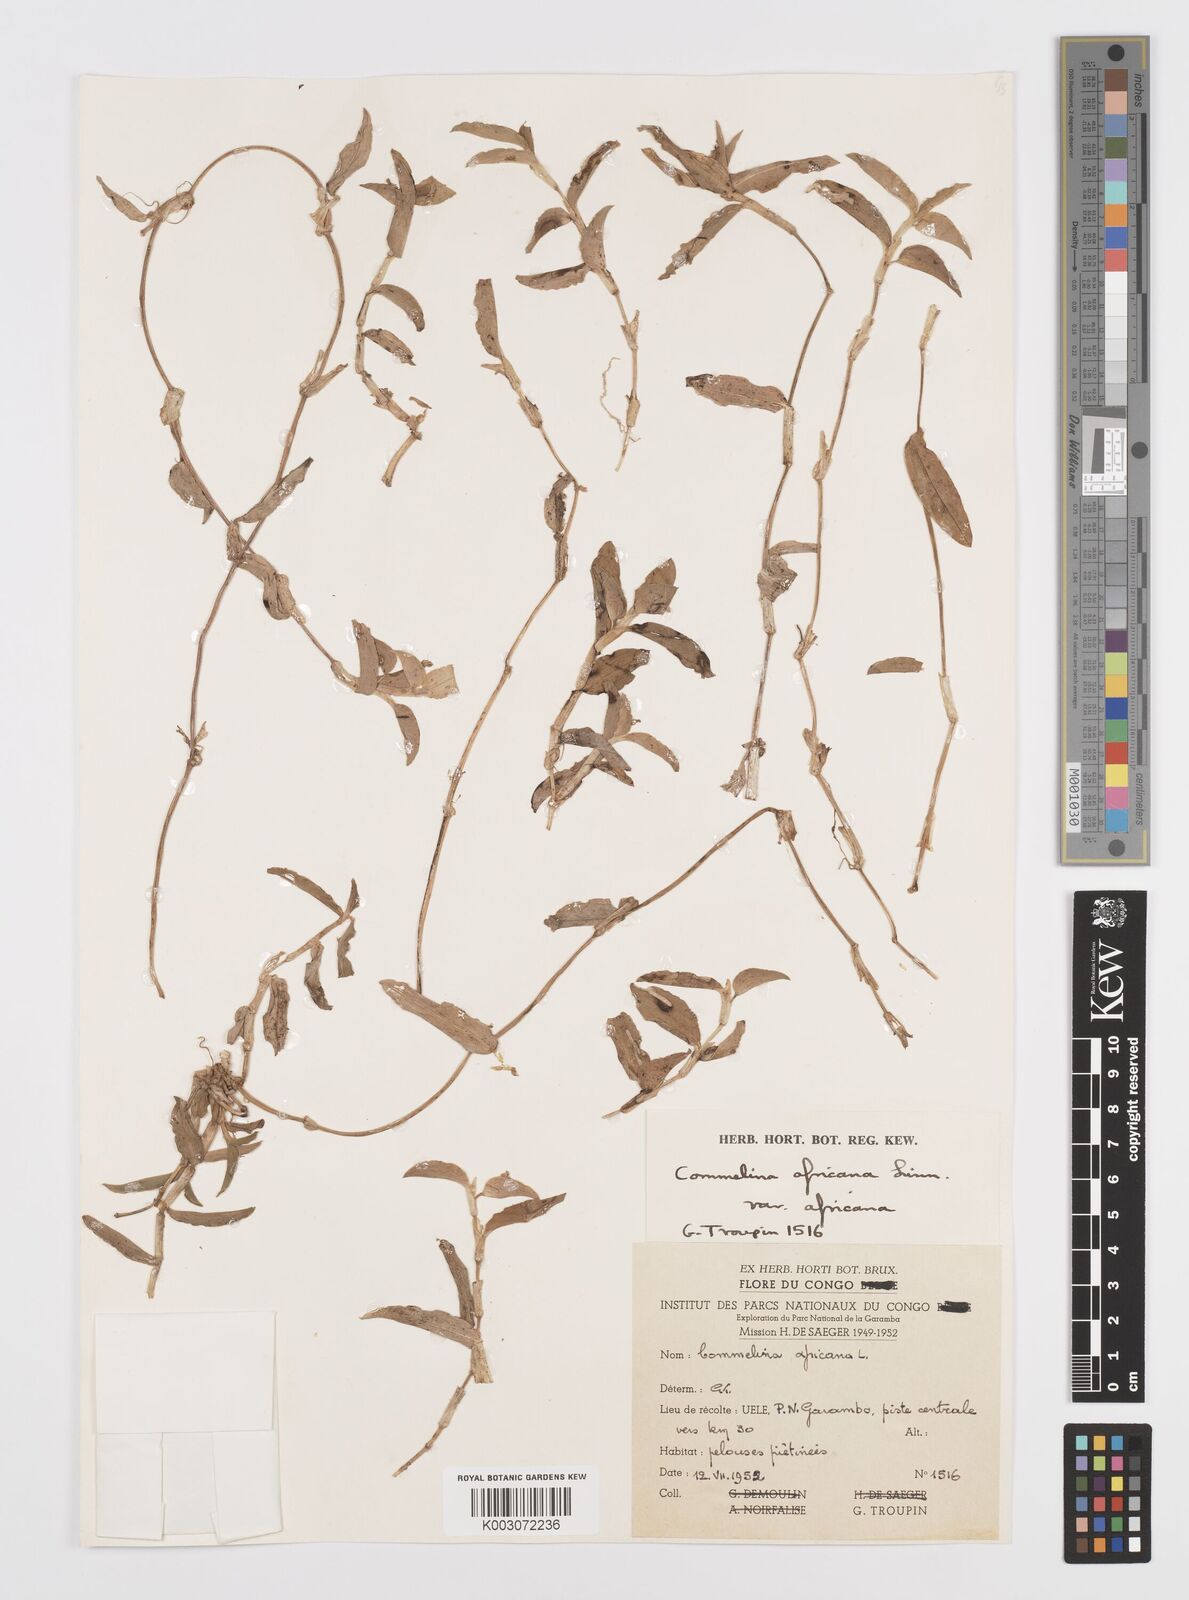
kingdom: Plantae
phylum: Tracheophyta
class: Liliopsida
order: Commelinales
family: Commelinaceae
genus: Commelina
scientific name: Commelina africana
